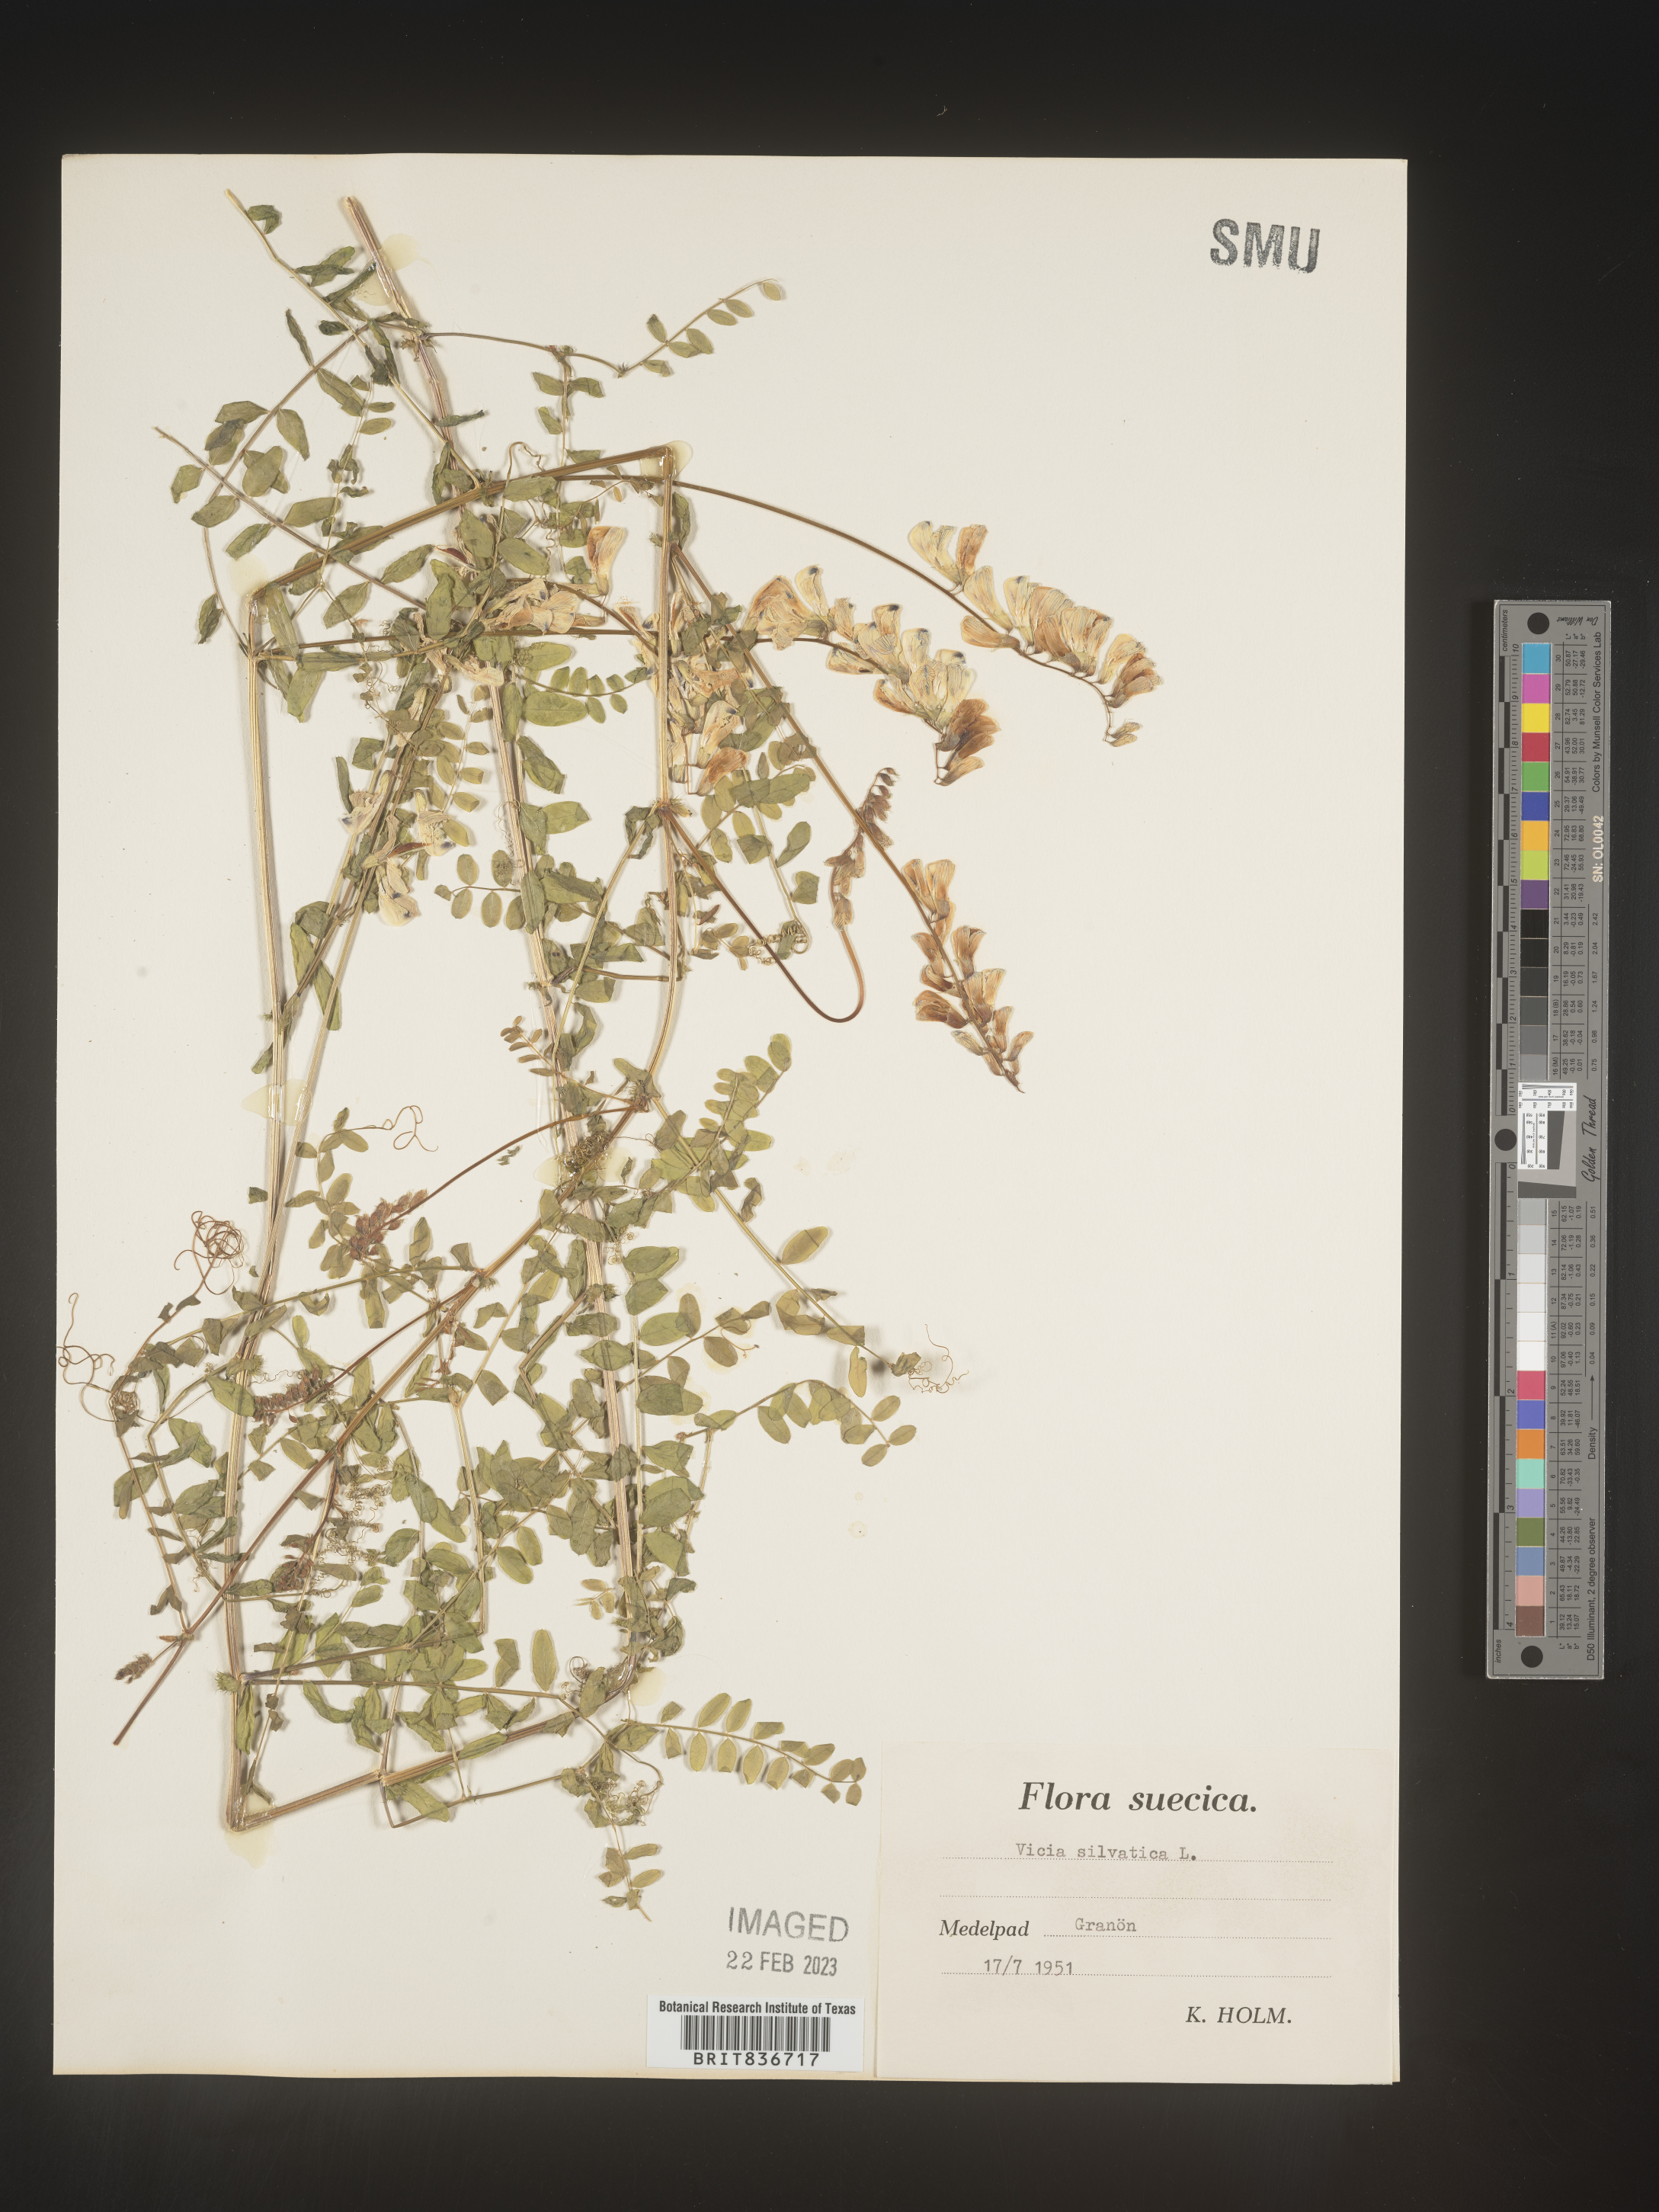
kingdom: Plantae
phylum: Tracheophyta
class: Magnoliopsida
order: Fabales
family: Fabaceae
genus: Vicia
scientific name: Vicia sylvatica
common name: Wood vetch
